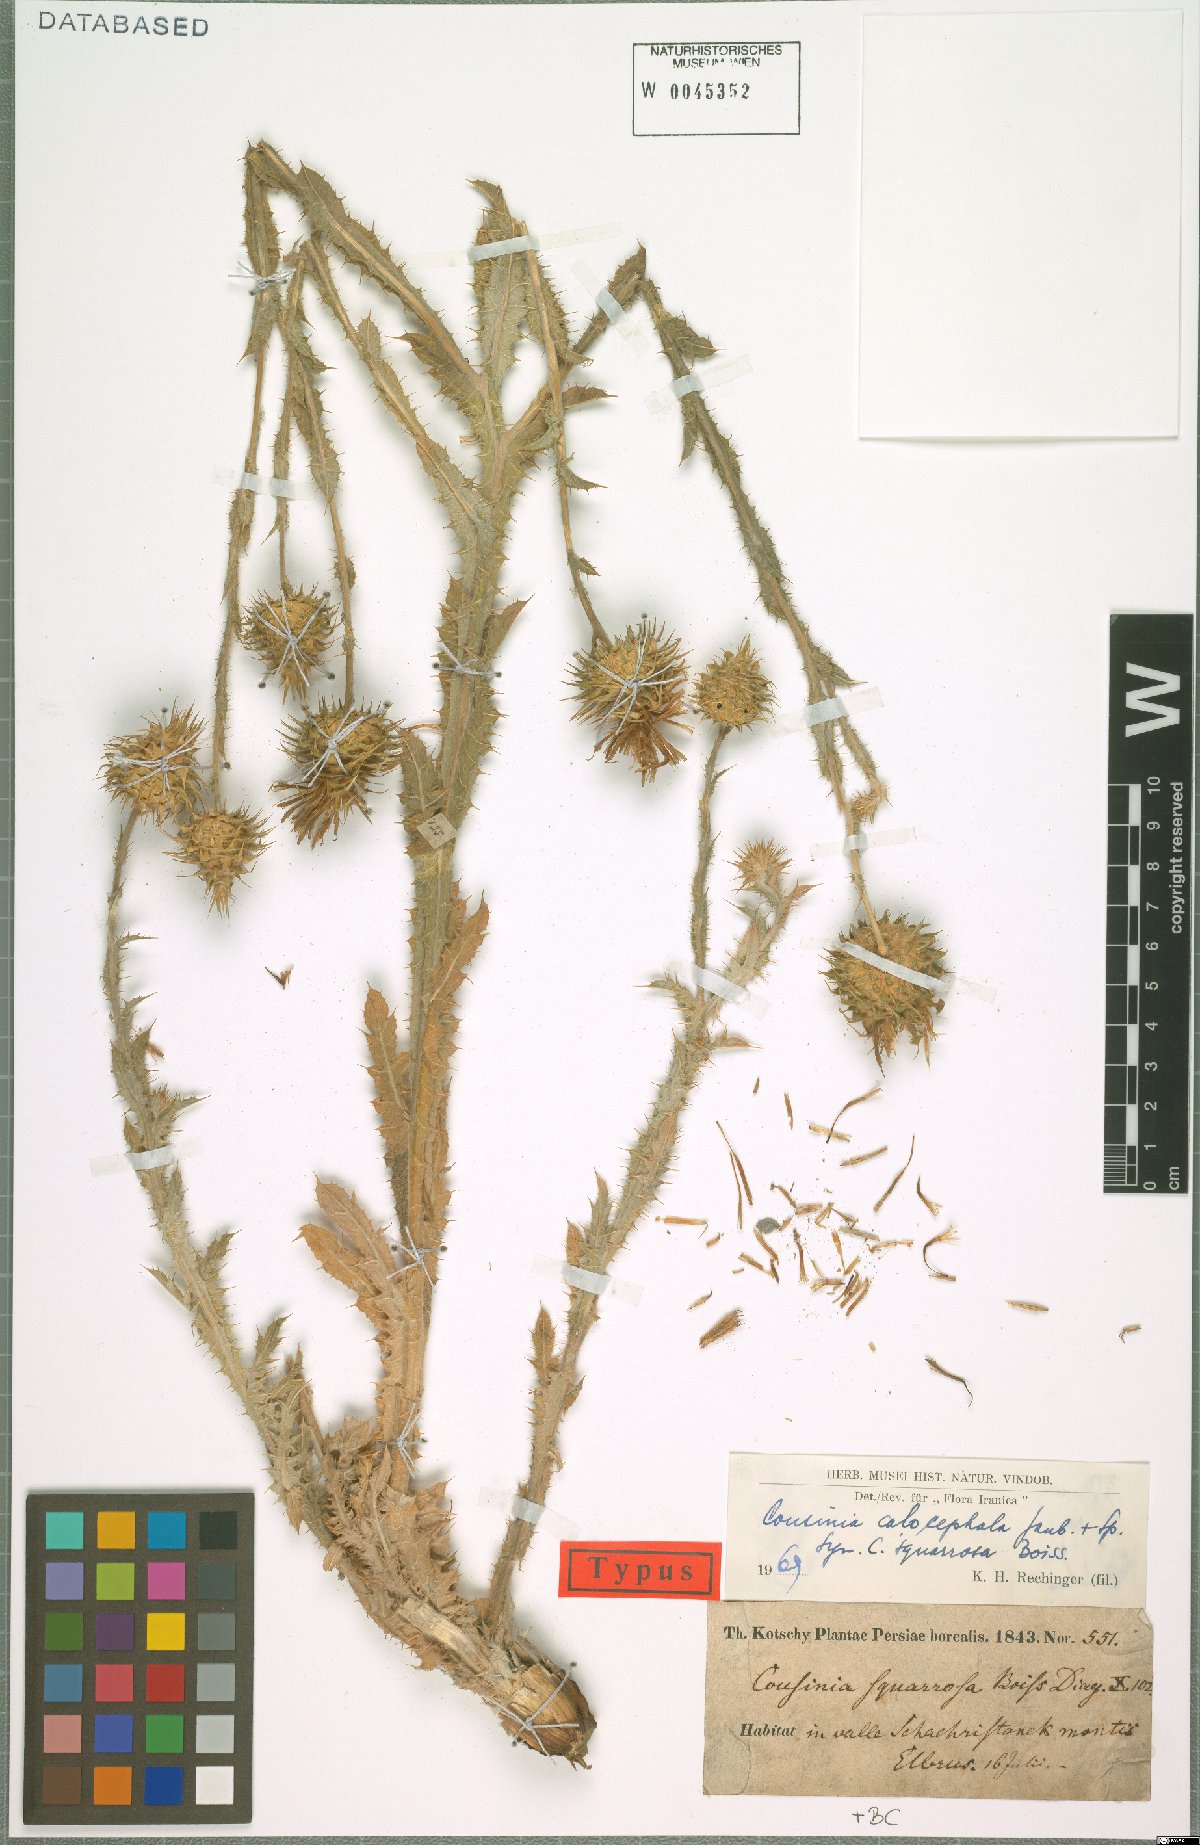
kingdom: Plantae
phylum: Tracheophyta
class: Magnoliopsida
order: Asterales
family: Asteraceae
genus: Cousinia
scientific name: Cousinia calocephala
